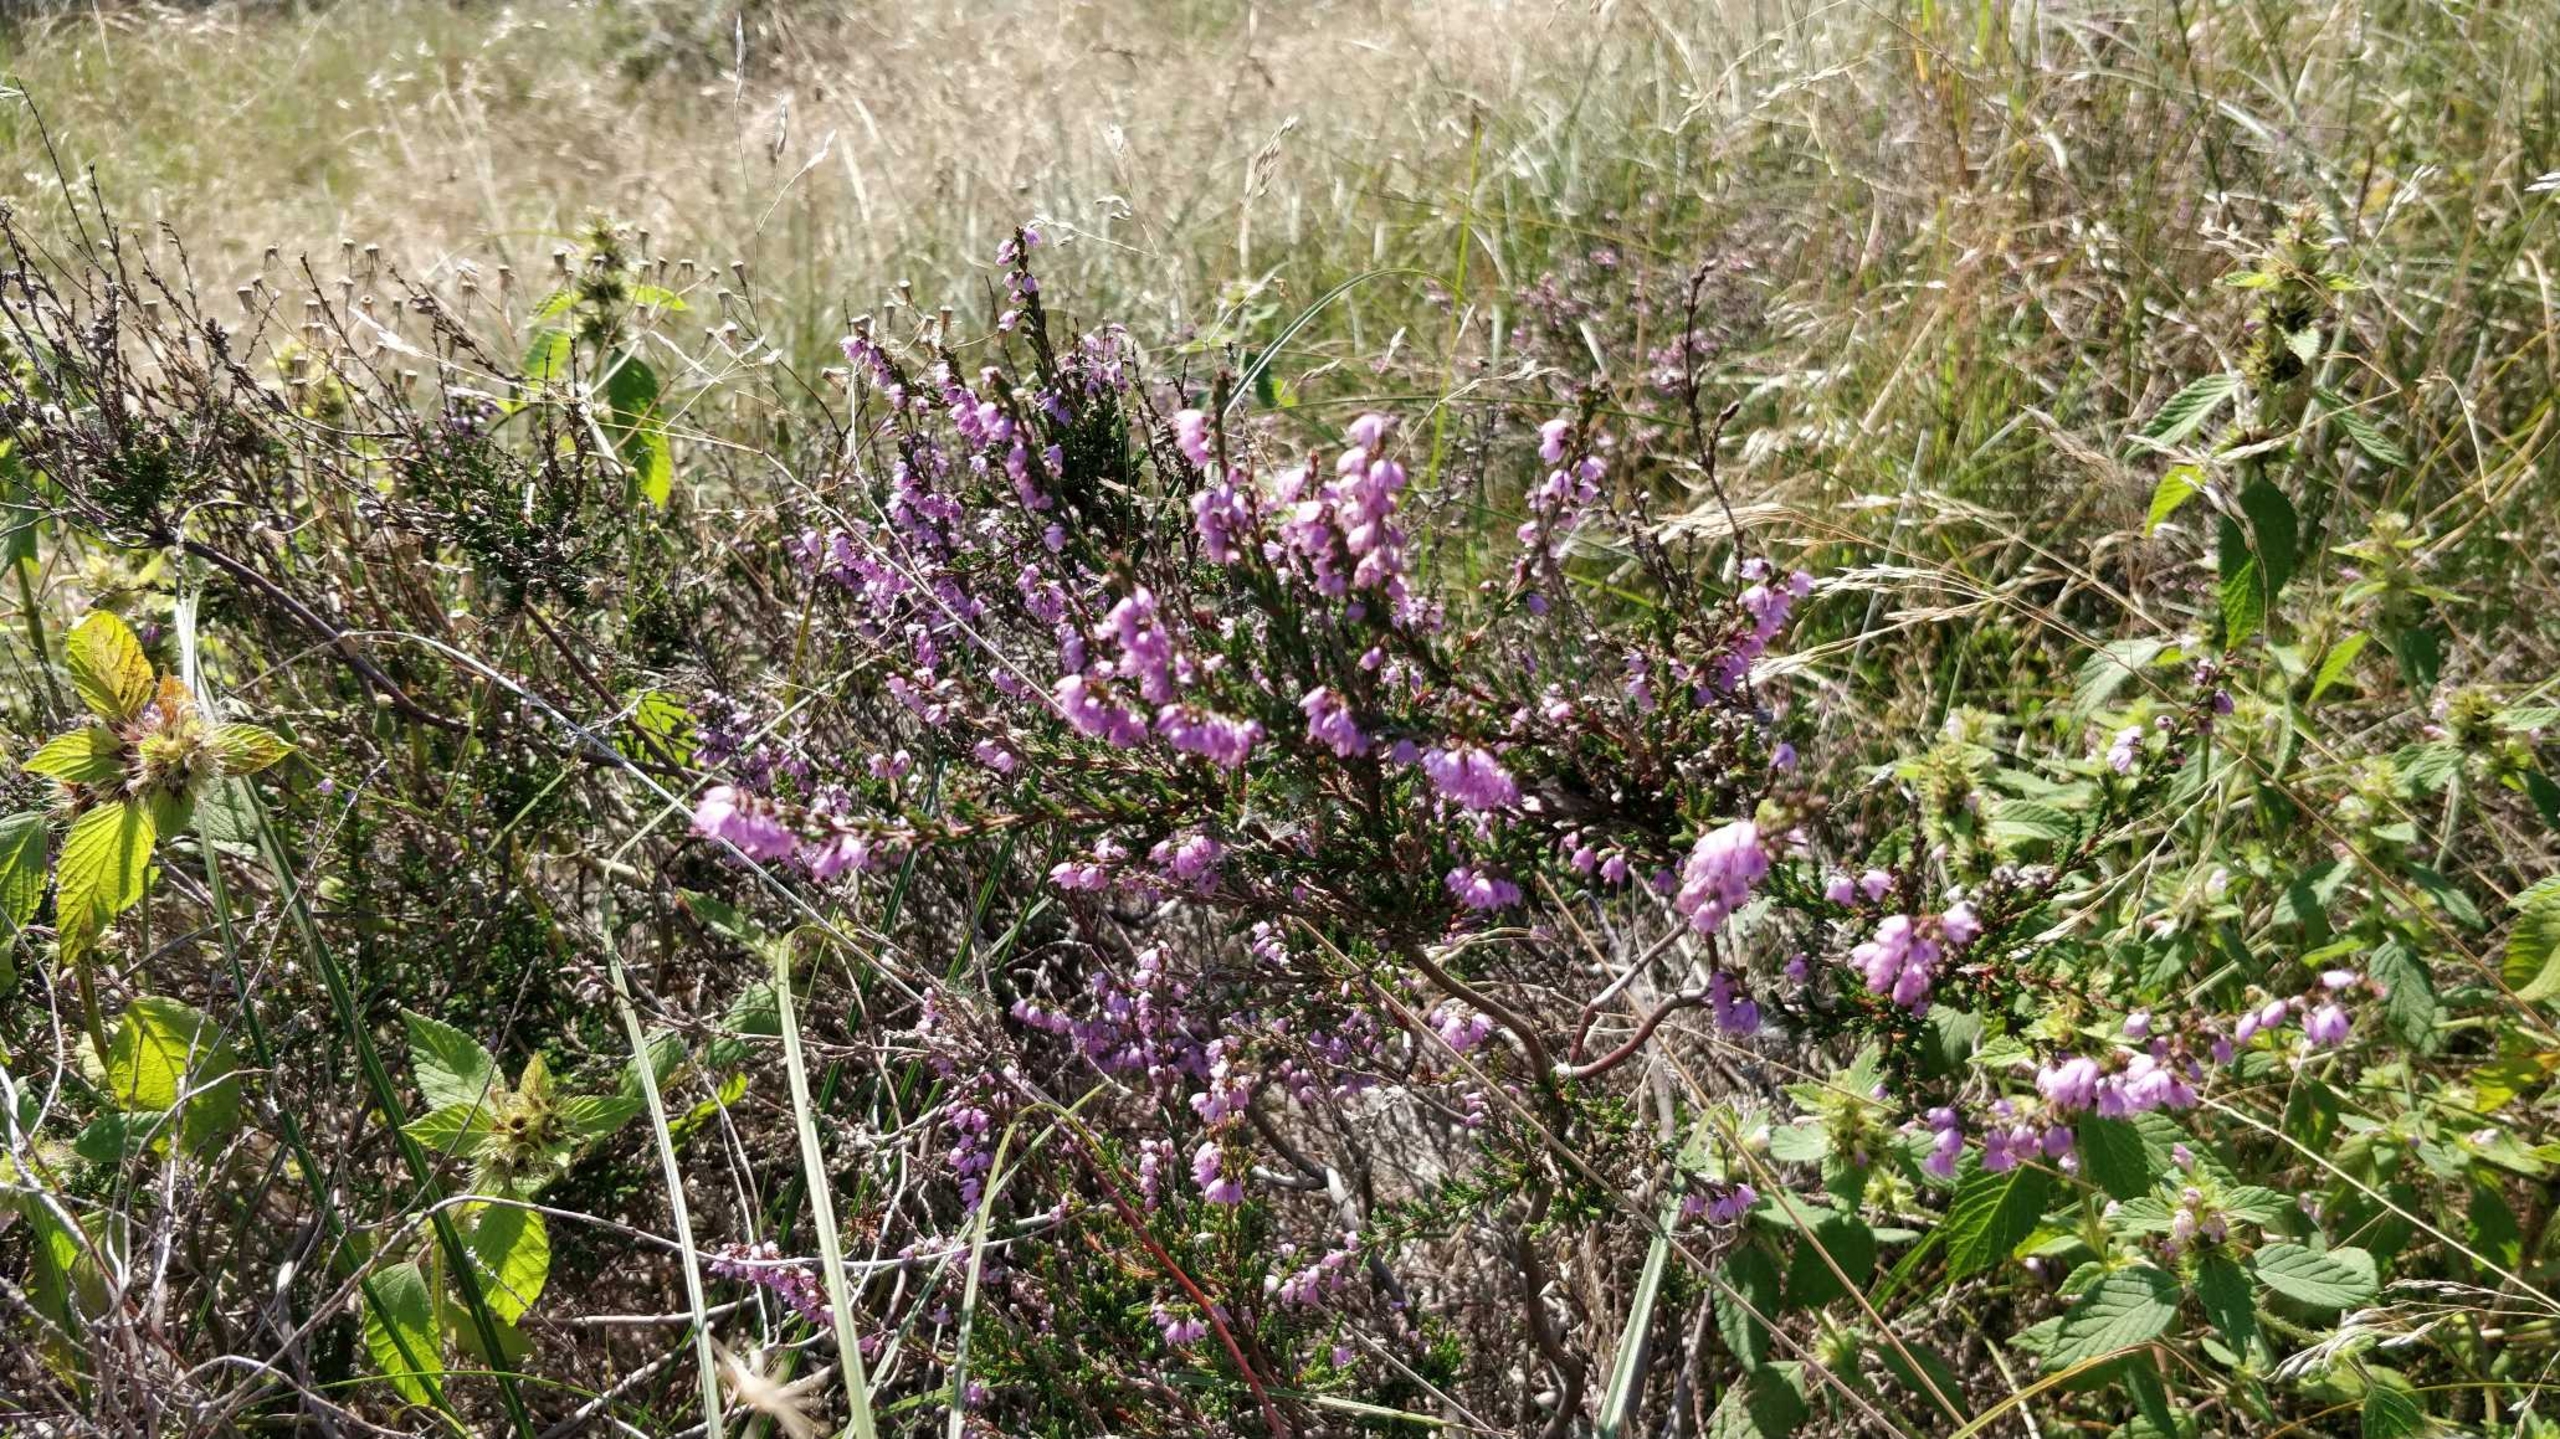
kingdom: Plantae
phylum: Tracheophyta
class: Magnoliopsida
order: Ericales
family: Ericaceae
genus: Calluna
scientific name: Calluna vulgaris
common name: Hedelyng
